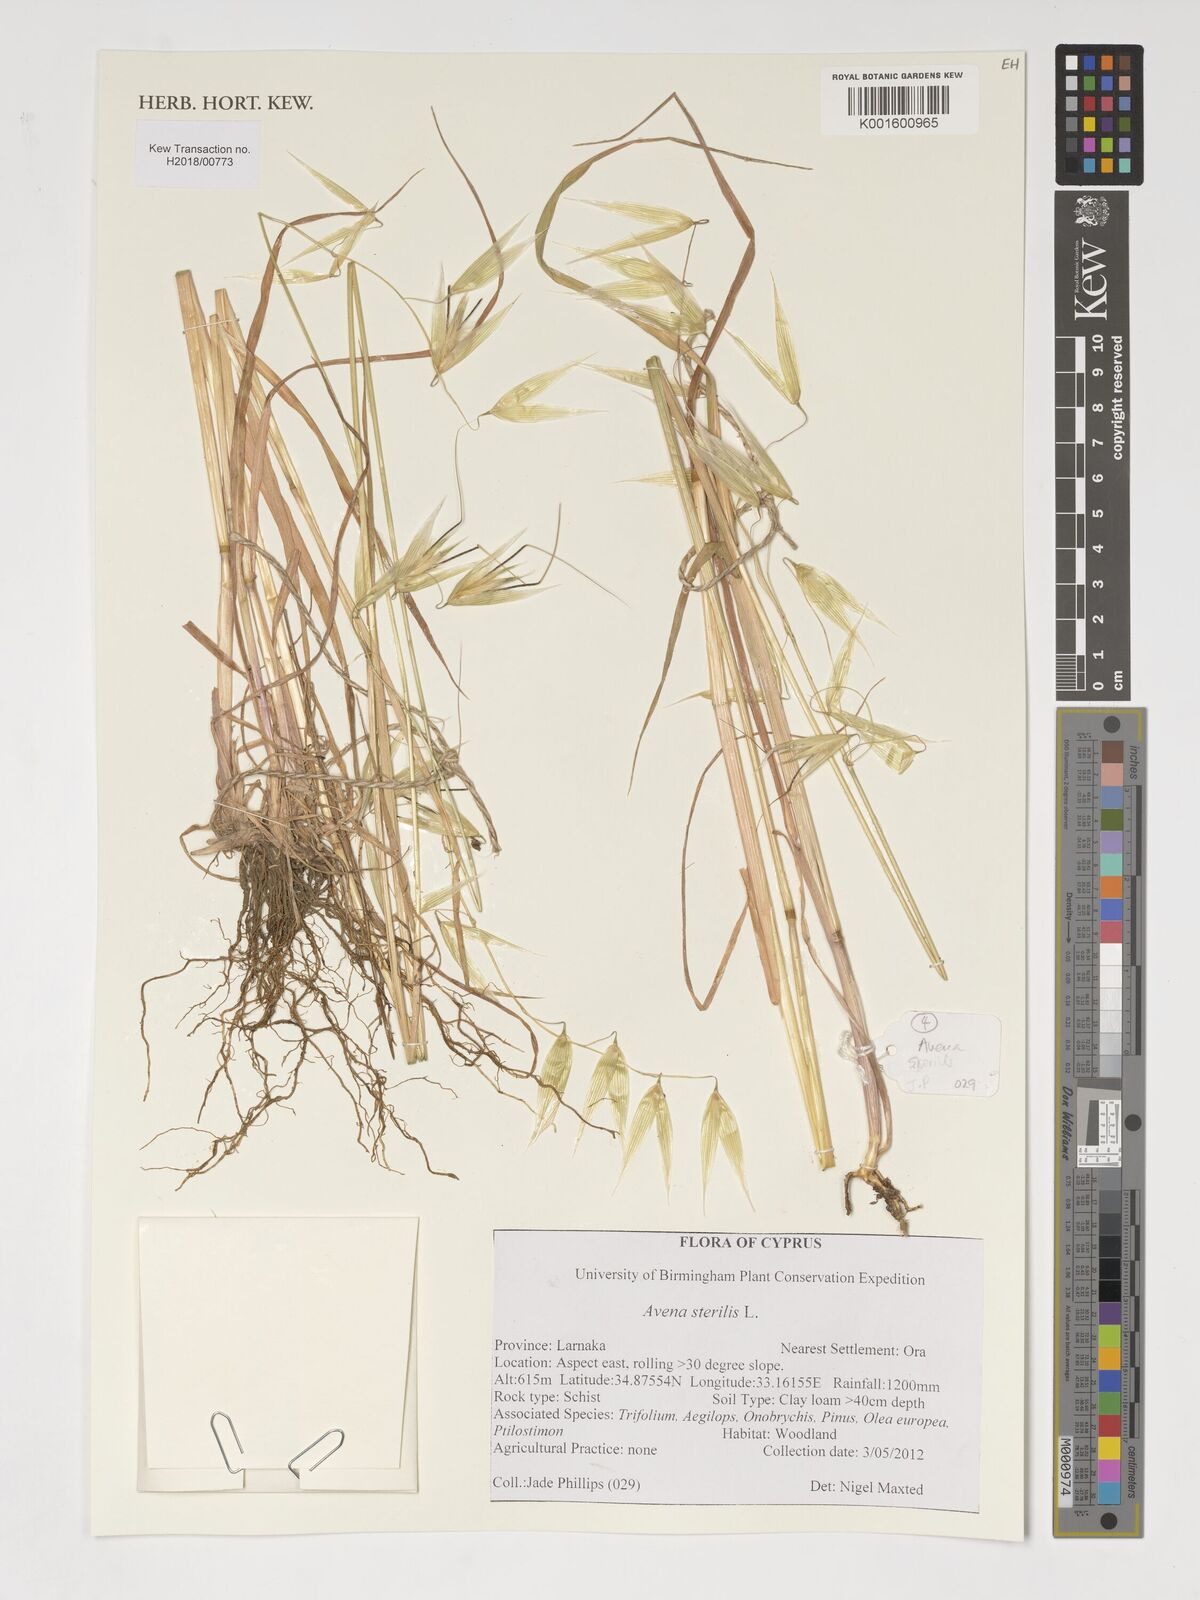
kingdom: Plantae
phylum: Tracheophyta
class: Liliopsida
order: Poales
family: Poaceae
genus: Avena
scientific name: Avena sterilis
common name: Animated oat
